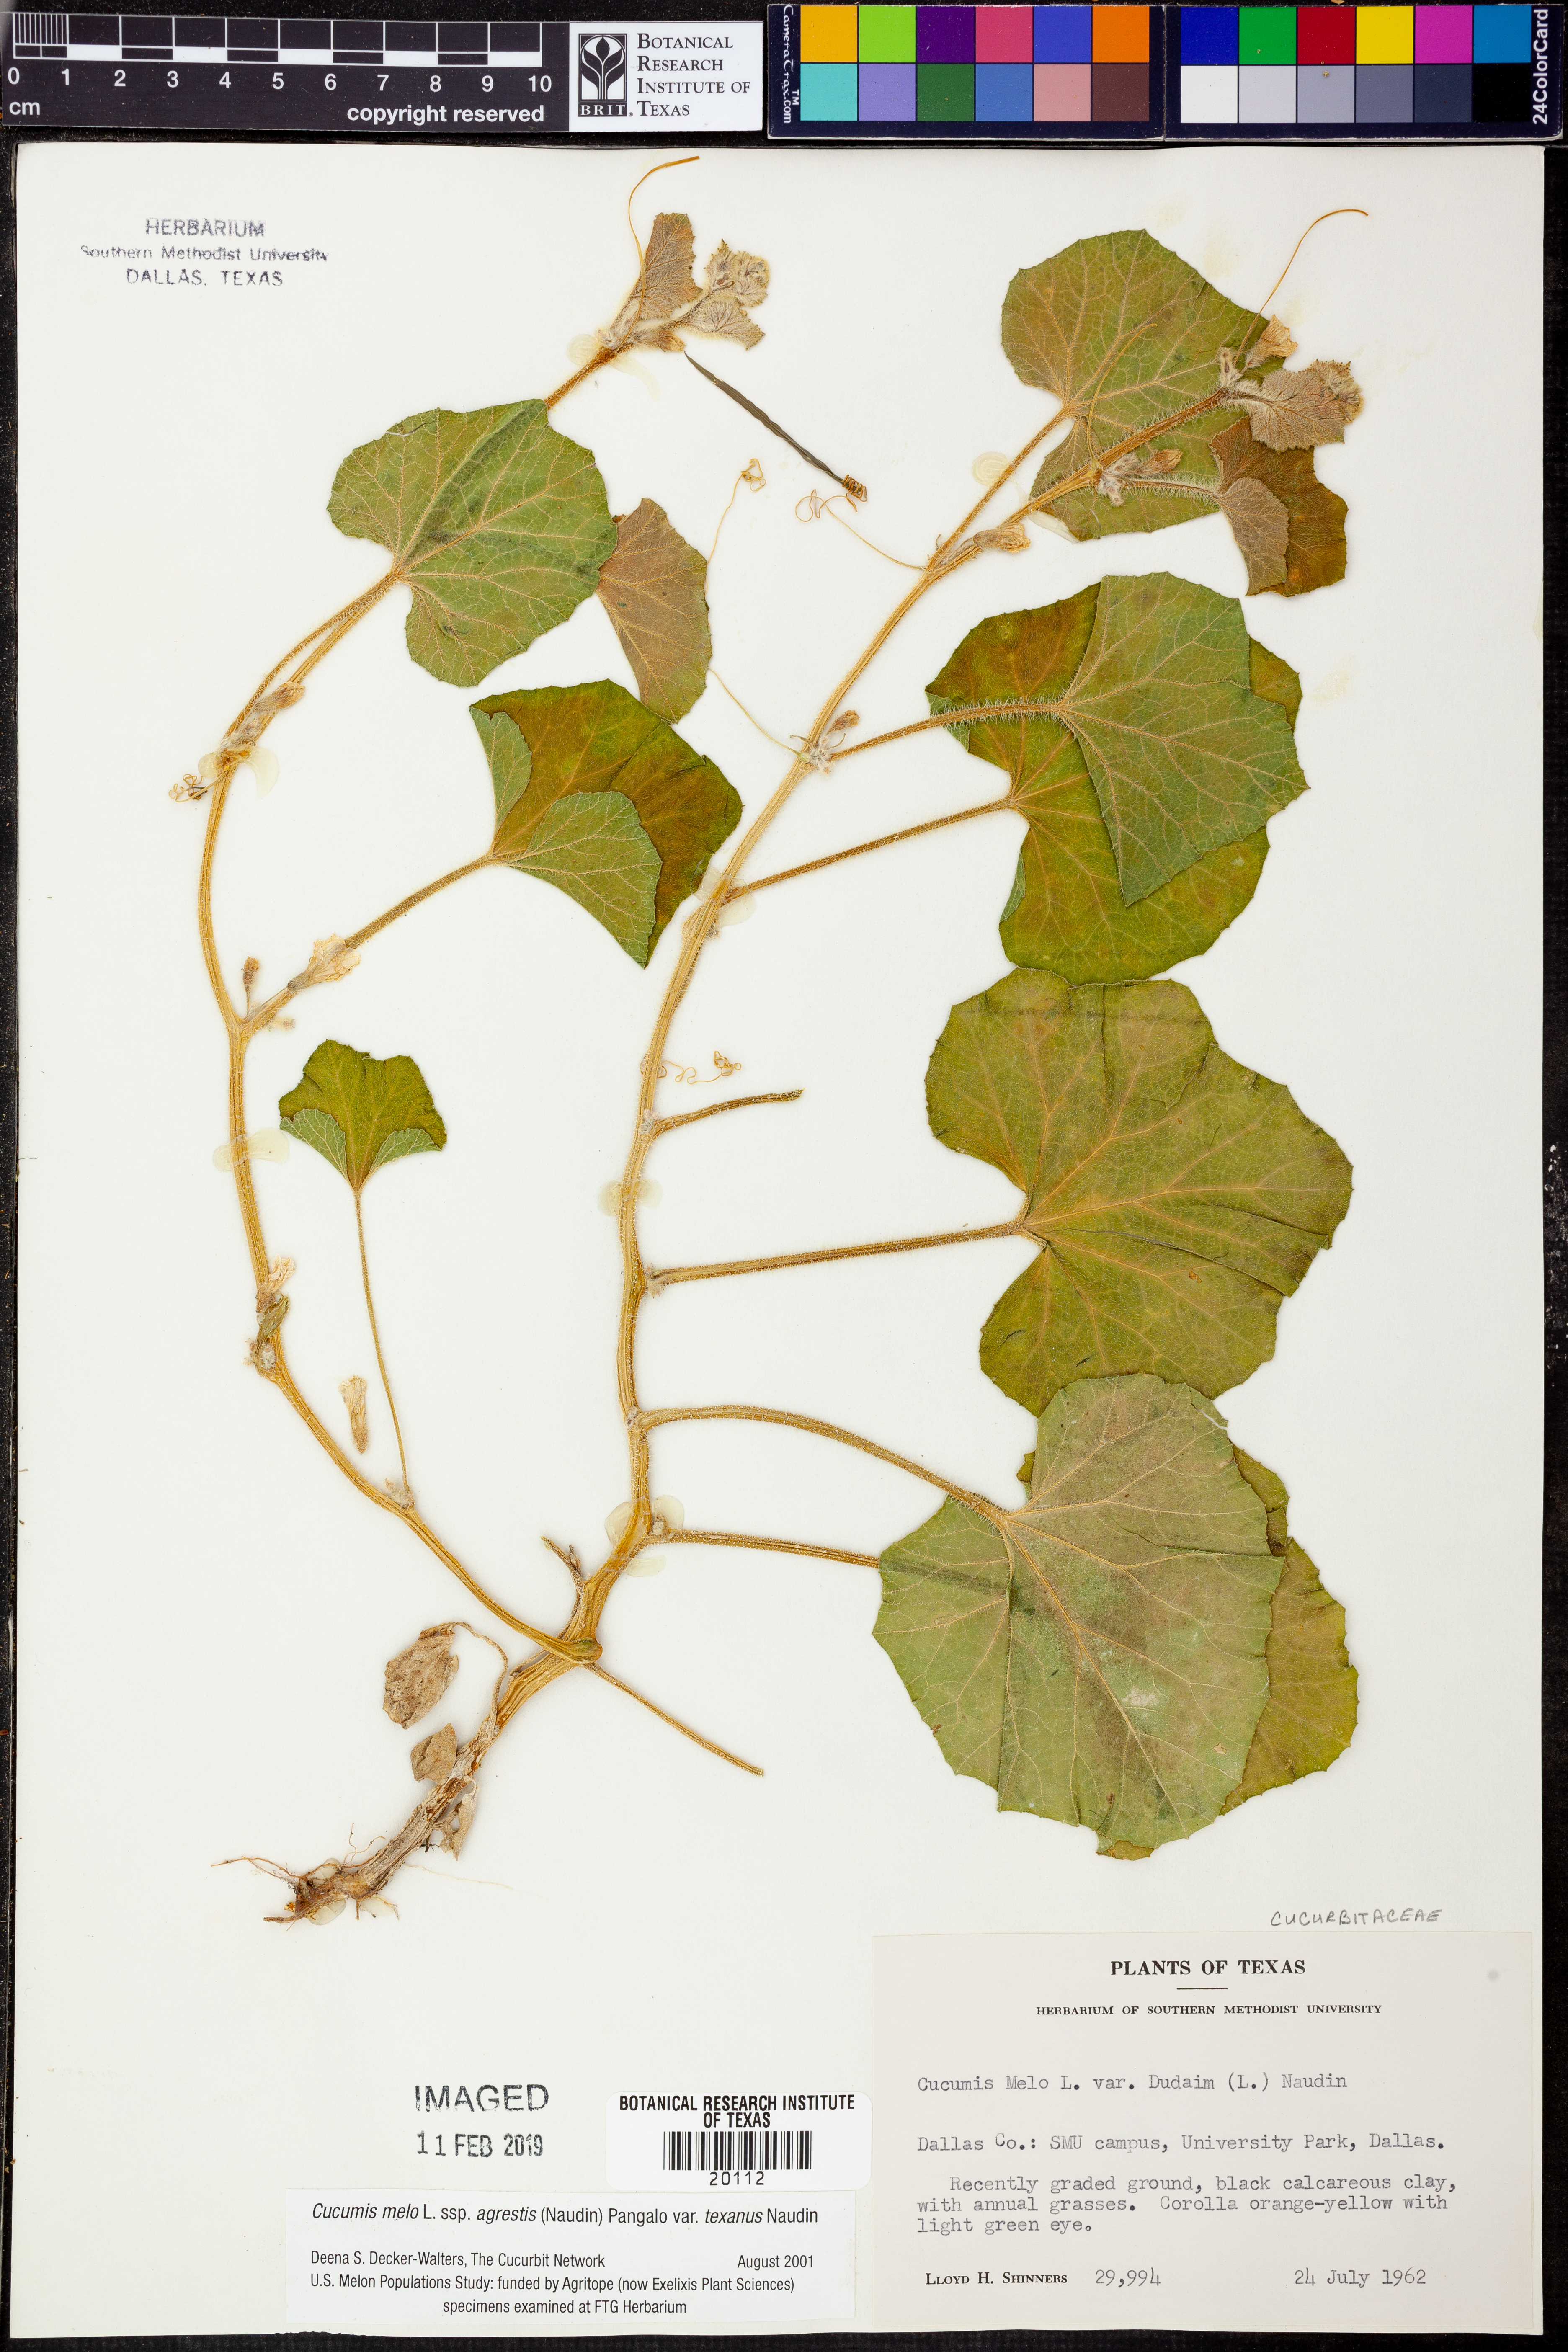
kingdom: Plantae
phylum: Tracheophyta
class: Magnoliopsida
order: Cucurbitales
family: Cucurbitaceae
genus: Cucumis
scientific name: Cucumis melo
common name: Melon
